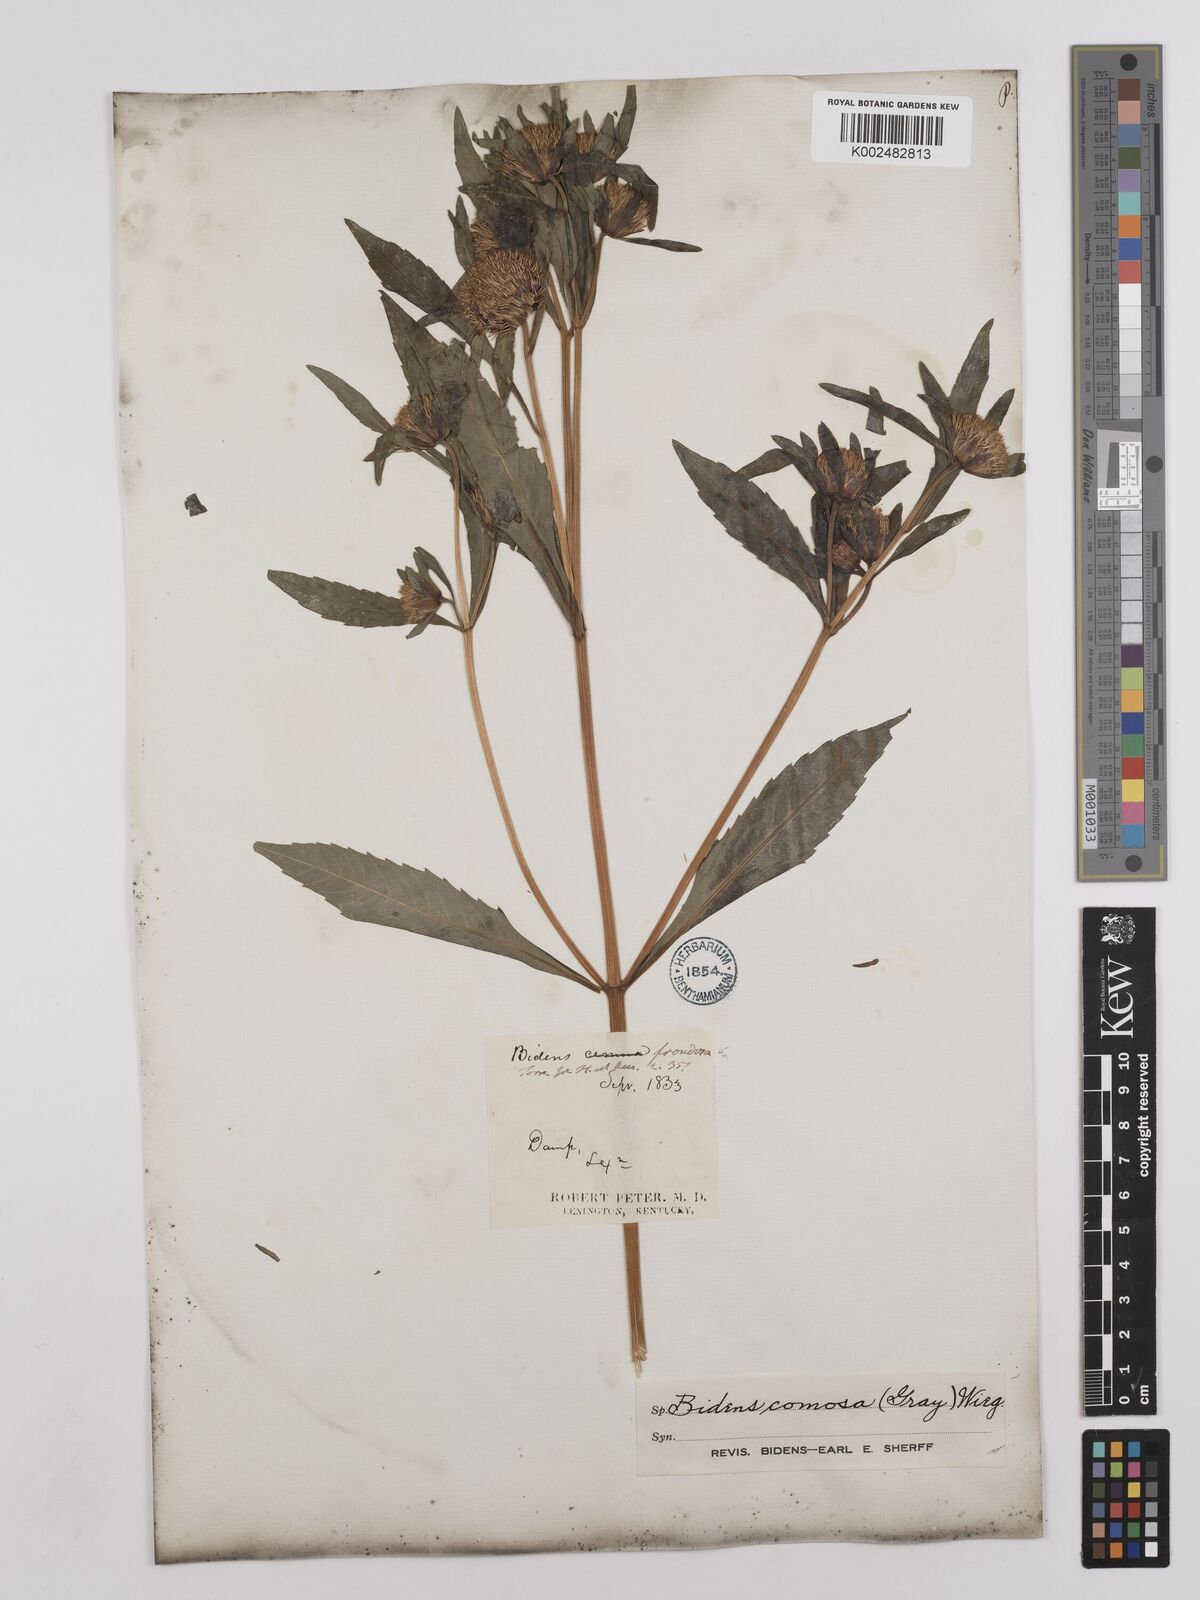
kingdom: Plantae
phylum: Tracheophyta
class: Magnoliopsida
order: Asterales
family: Asteraceae
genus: Bidens
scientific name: Bidens tripartita
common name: Trifid bur-marigold
